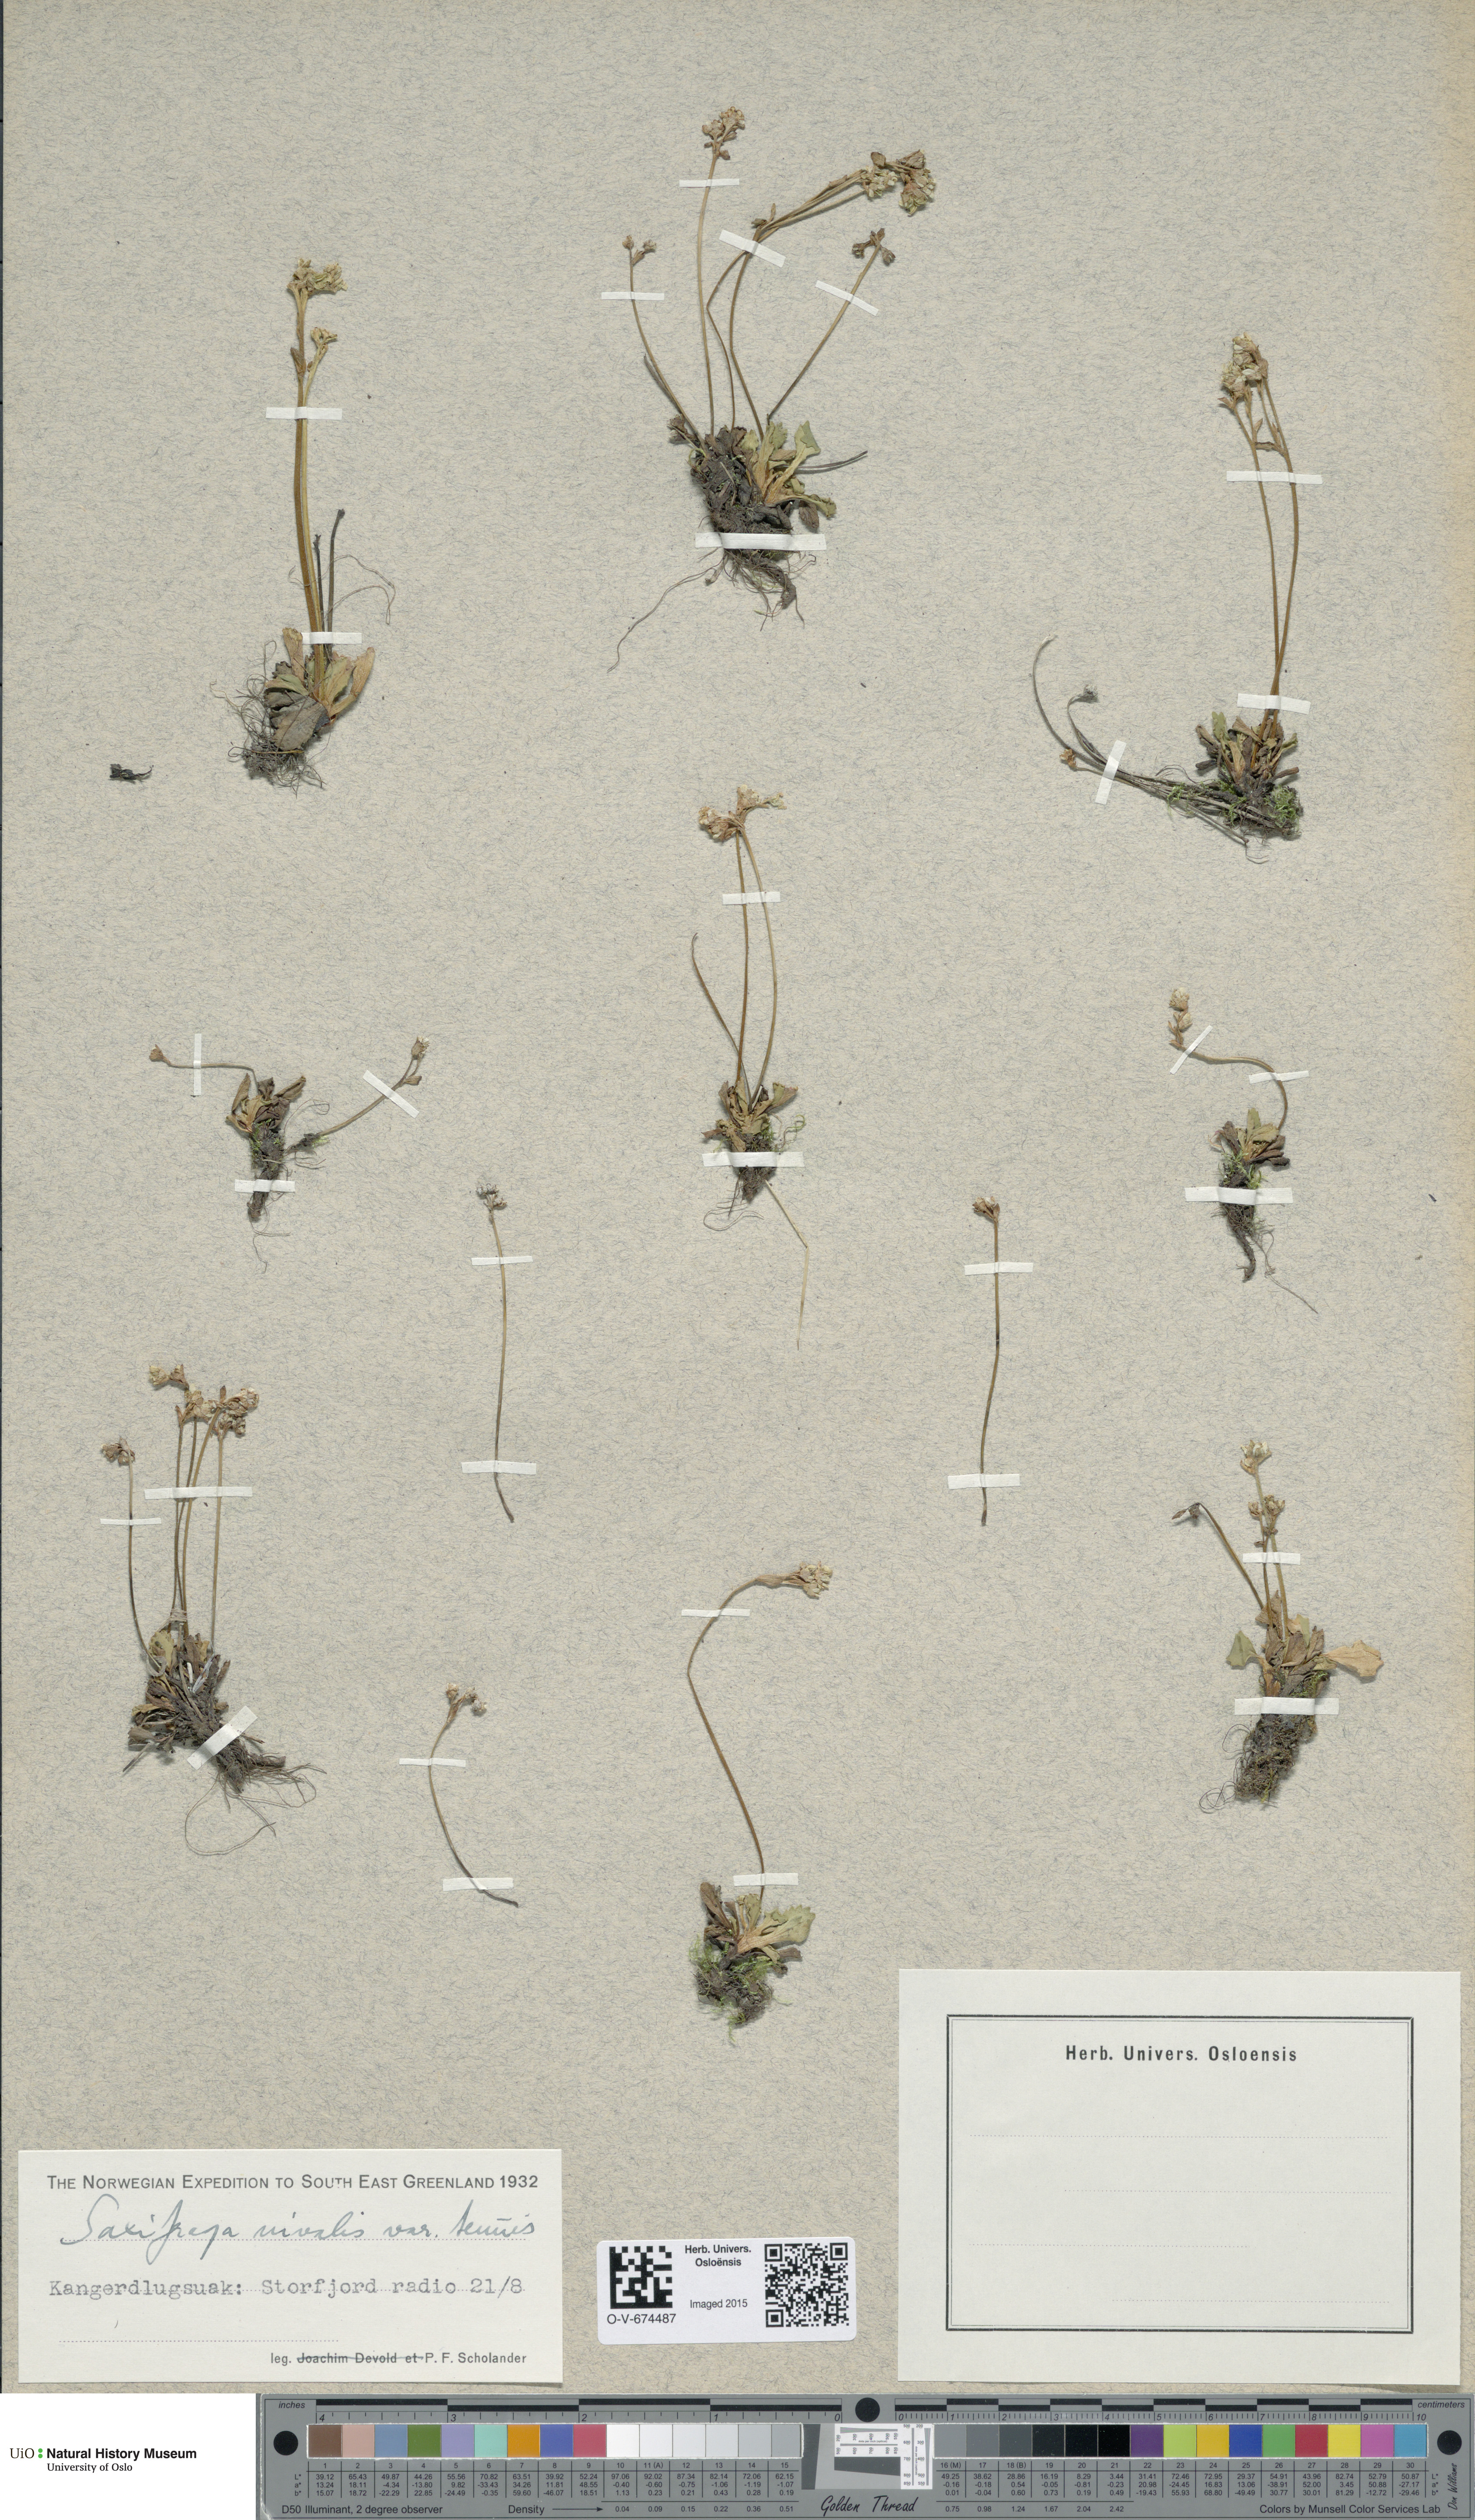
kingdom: Plantae
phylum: Tracheophyta
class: Magnoliopsida
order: Saxifragales
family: Saxifragaceae
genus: Micranthes
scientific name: Micranthes tenuis
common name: Ottertail pass saxifrage
